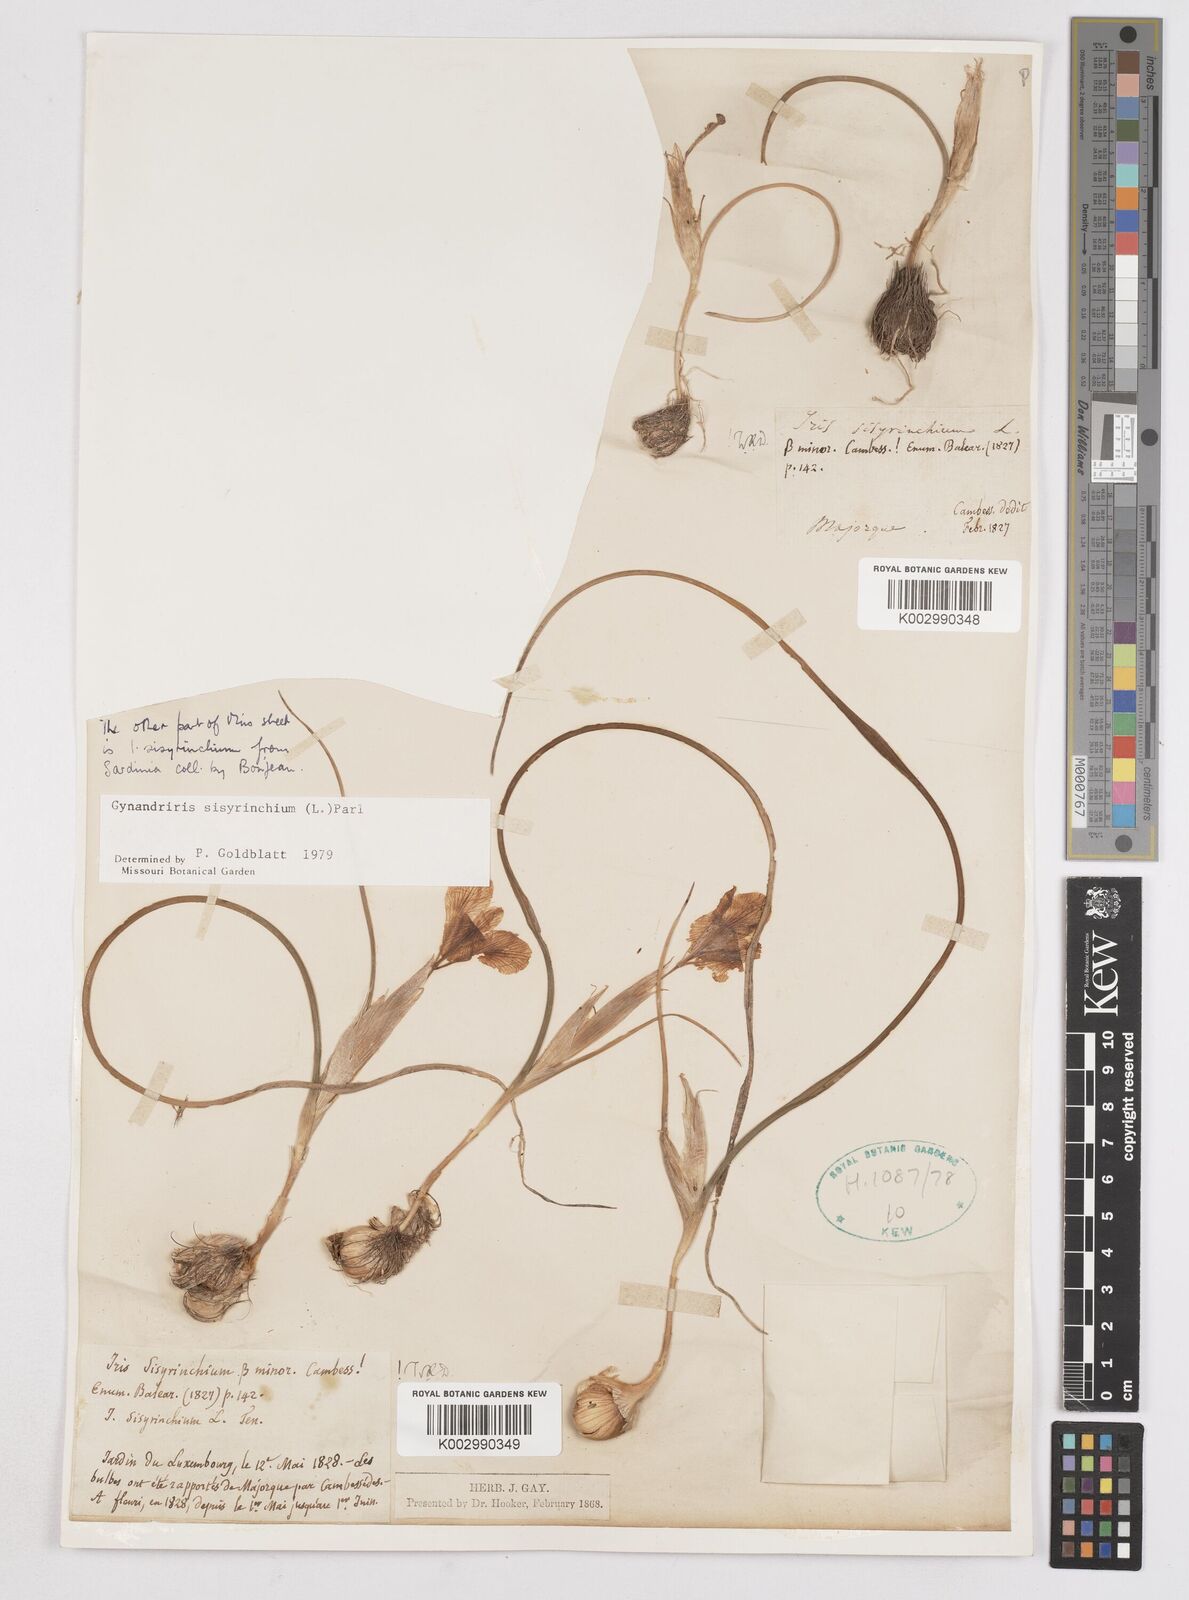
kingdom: Plantae
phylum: Tracheophyta
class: Liliopsida
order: Asparagales
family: Iridaceae
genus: Moraea
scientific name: Moraea sisyrinchium
